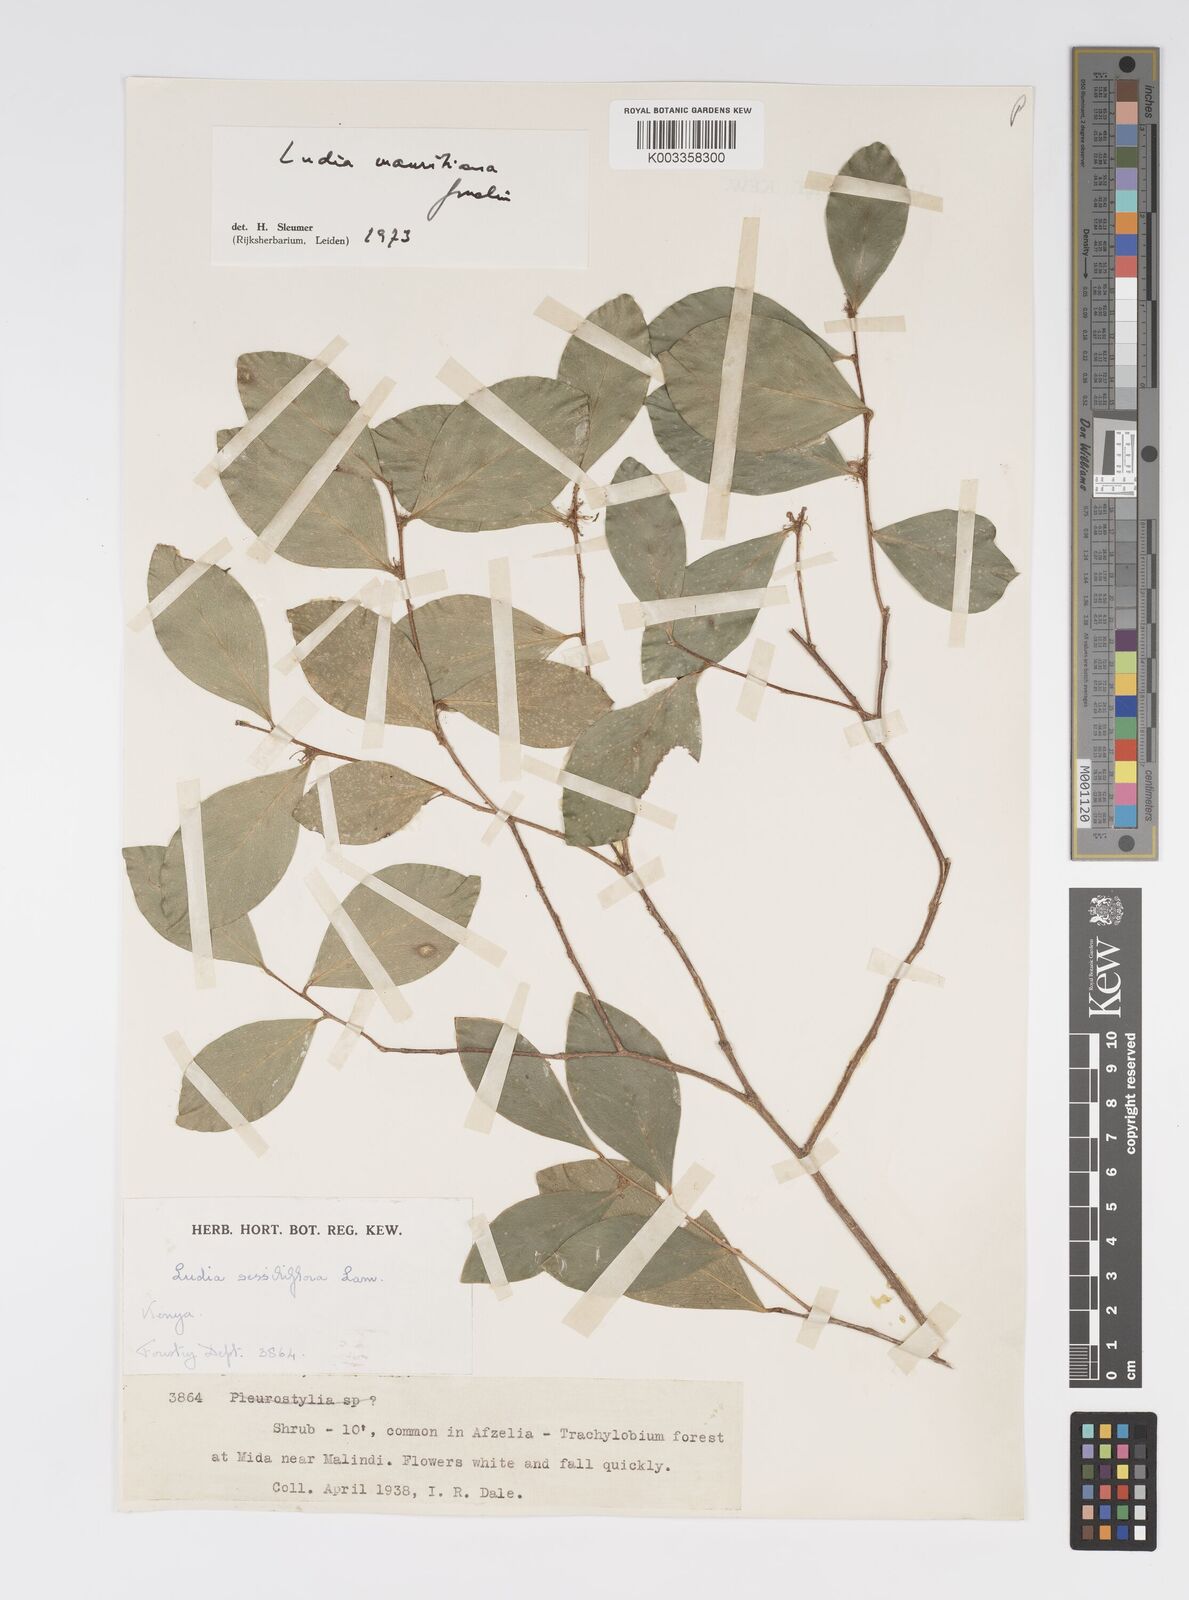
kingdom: Plantae
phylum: Tracheophyta
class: Magnoliopsida
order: Malpighiales
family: Salicaceae
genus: Ludia
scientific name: Ludia mauritiana
